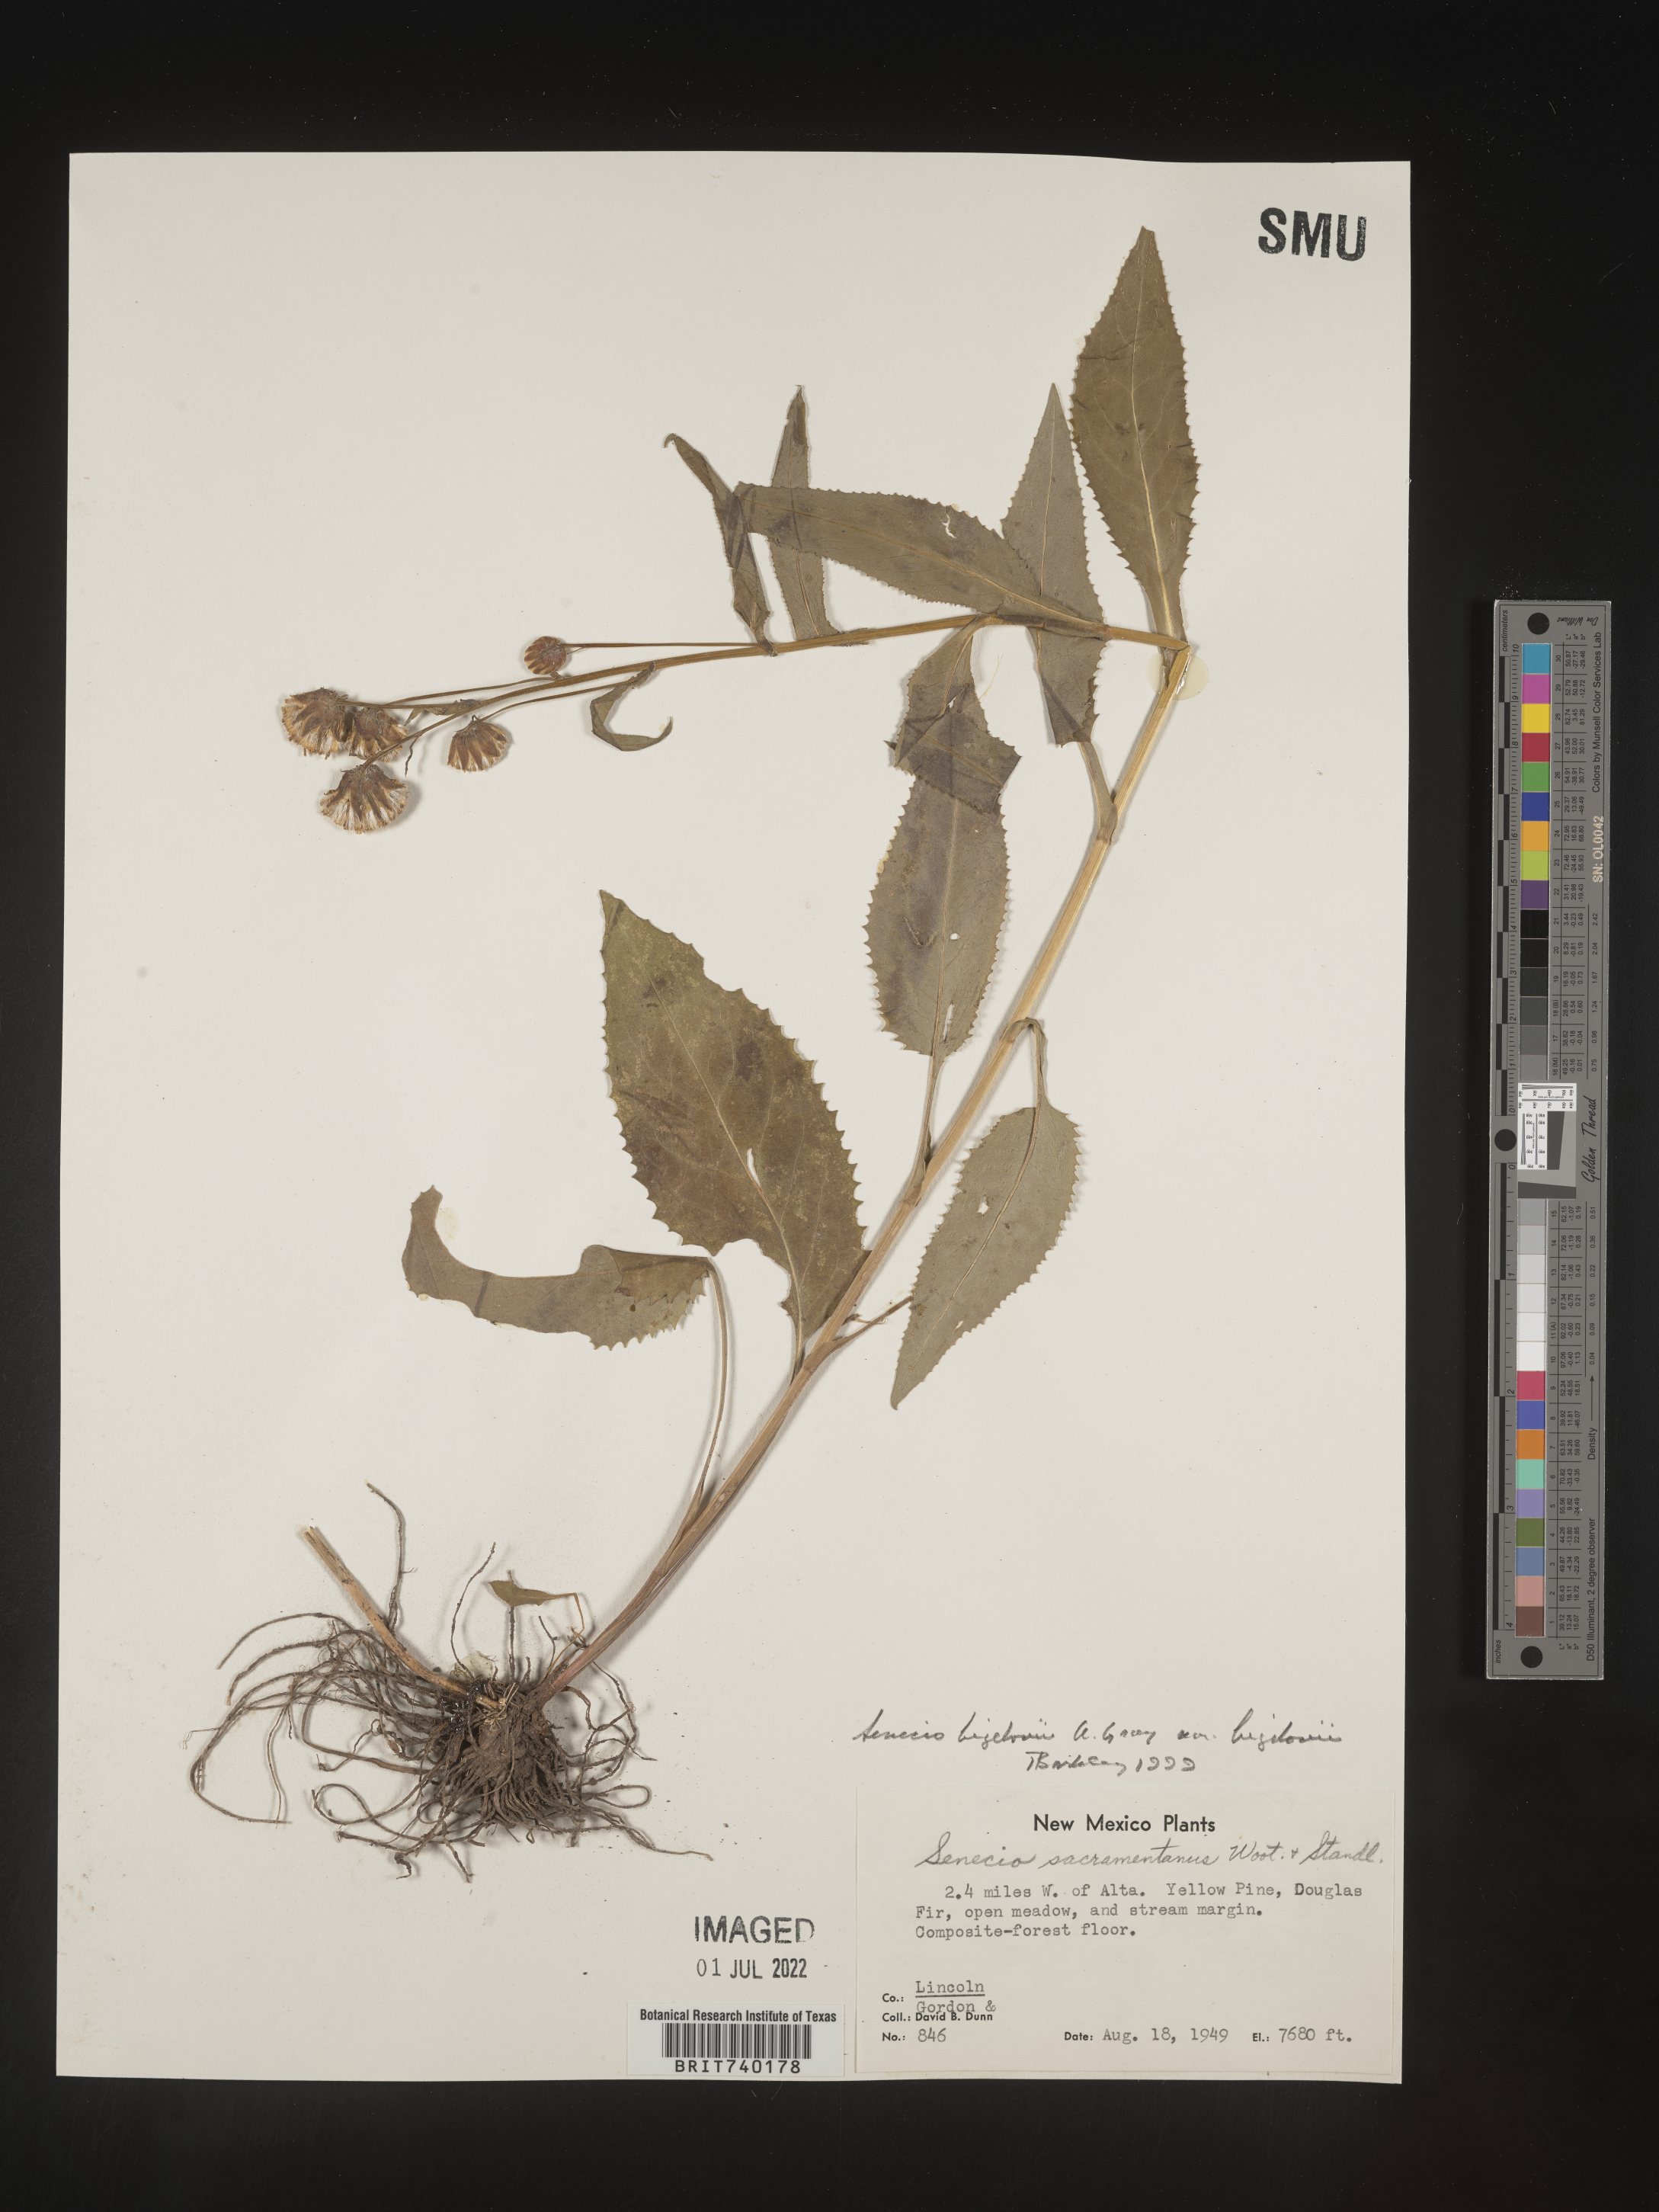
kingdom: Plantae
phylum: Tracheophyta
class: Magnoliopsida
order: Asterales
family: Asteraceae
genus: Senecio
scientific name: Senecio bigelovii
